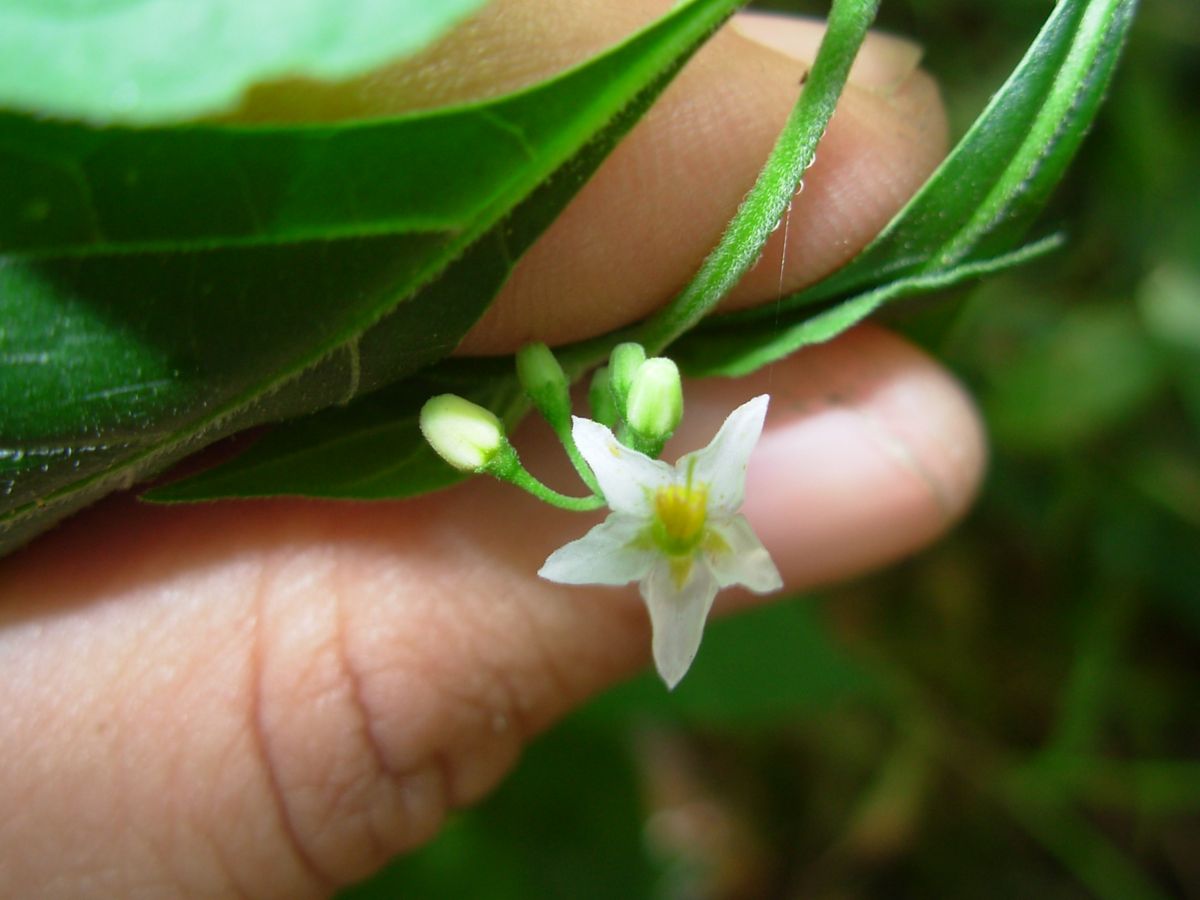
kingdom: Plantae
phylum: Tracheophyta
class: Magnoliopsida
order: Solanales
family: Solanaceae
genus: Solanum
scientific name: Solanum nigrescens
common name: Divine nightshade
